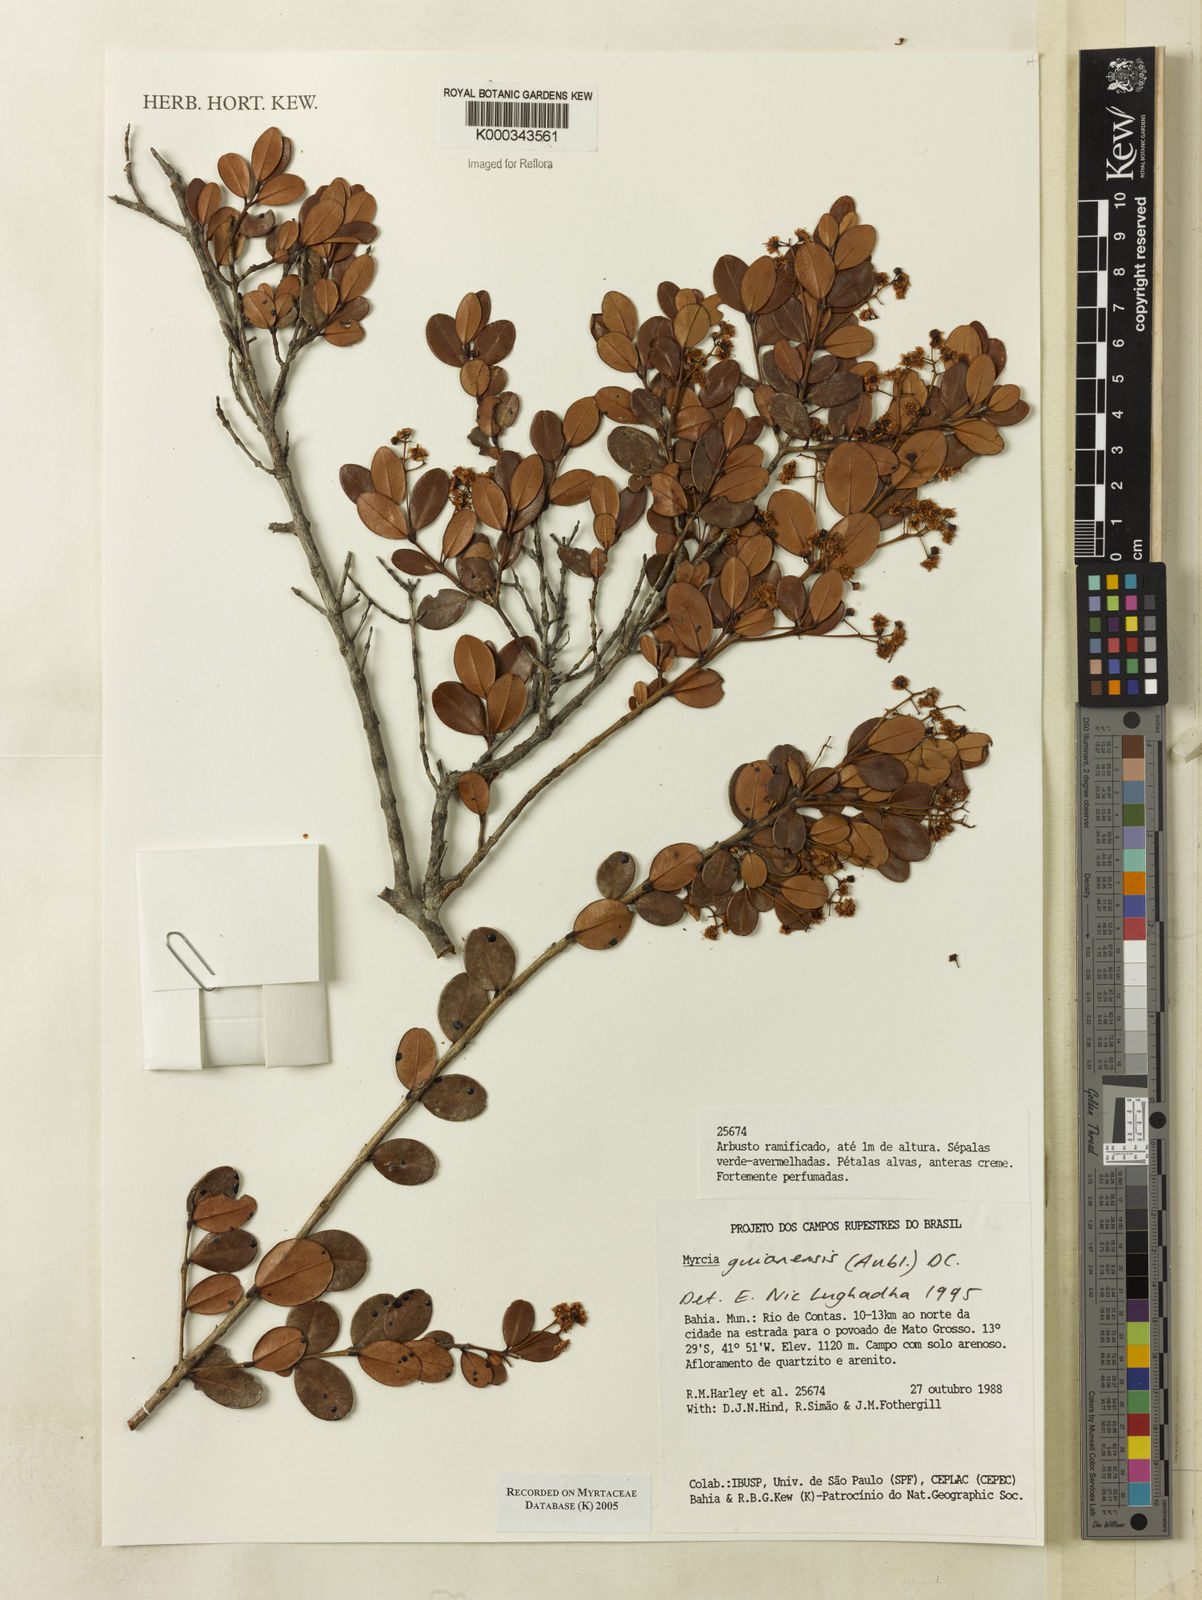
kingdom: Plantae
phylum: Tracheophyta
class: Magnoliopsida
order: Myrtales
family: Myrtaceae
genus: Myrcia
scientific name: Myrcia guianensis
